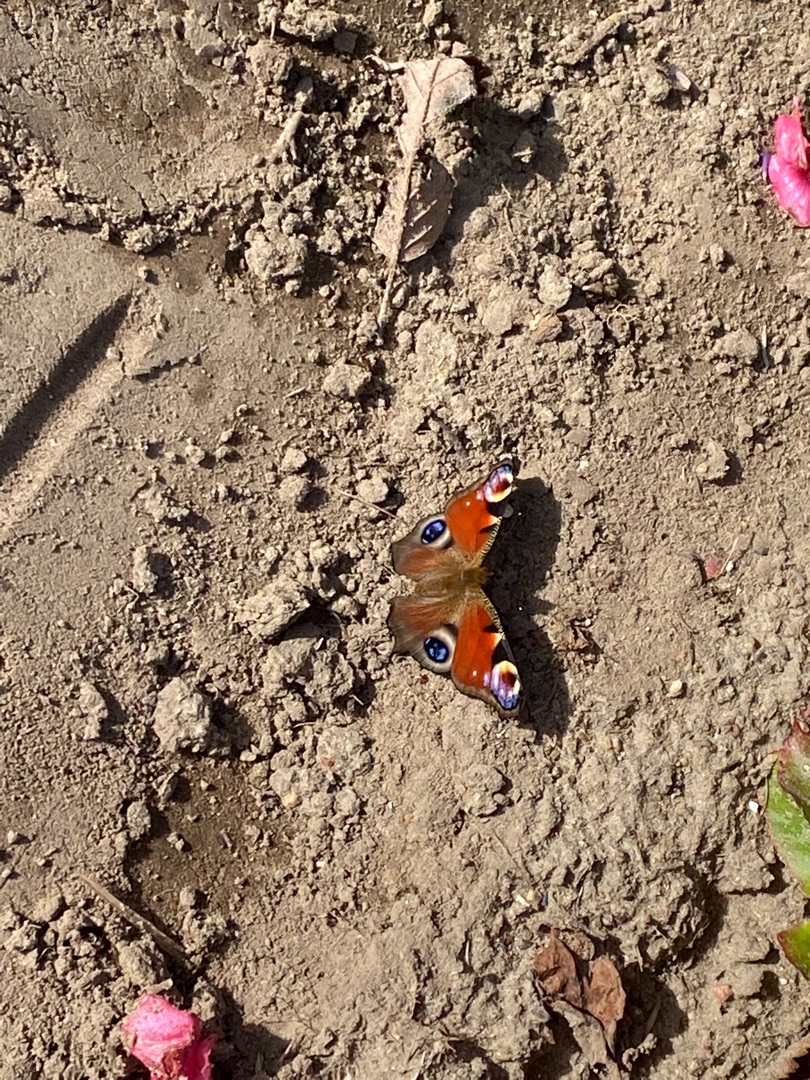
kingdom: Animalia
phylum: Arthropoda
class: Insecta
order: Lepidoptera
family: Nymphalidae
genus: Aglais
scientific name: Aglais io
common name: Dagpåfugleøje
